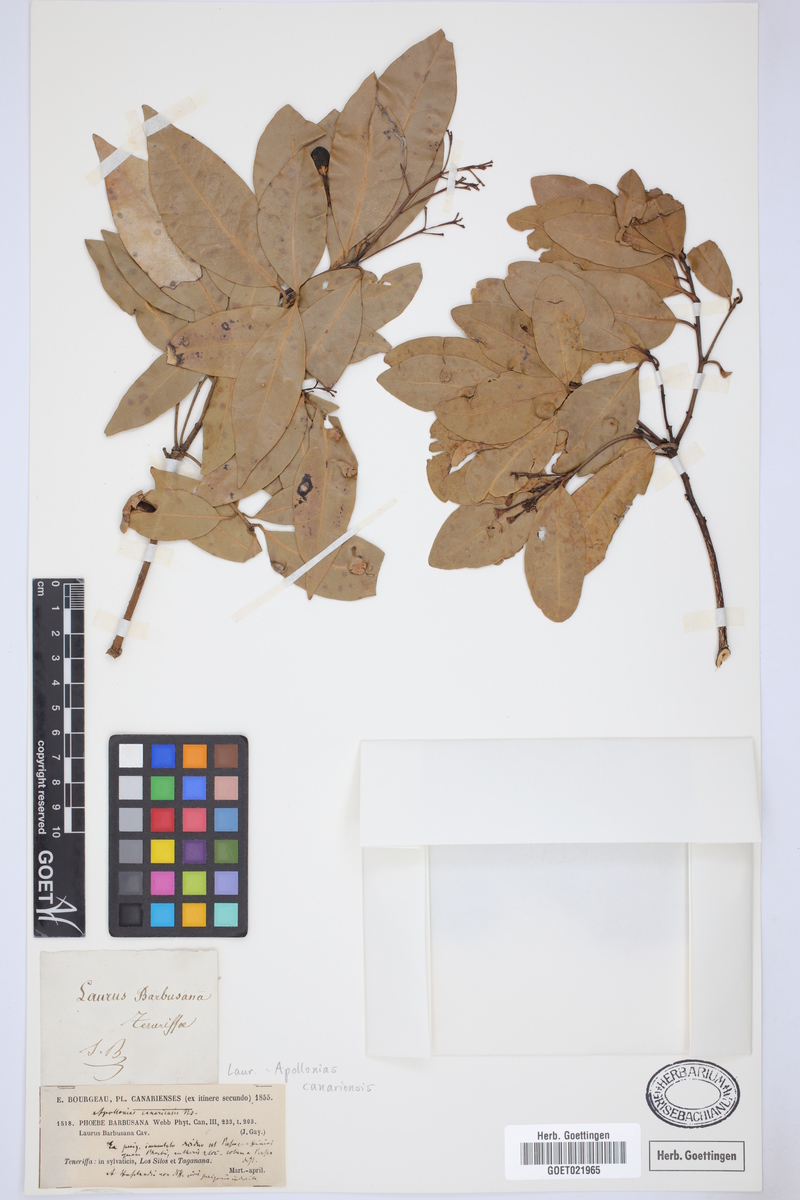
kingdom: Plantae
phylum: Tracheophyta
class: Magnoliopsida
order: Laurales
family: Lauraceae
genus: Apollonias
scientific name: Apollonias barbujana
